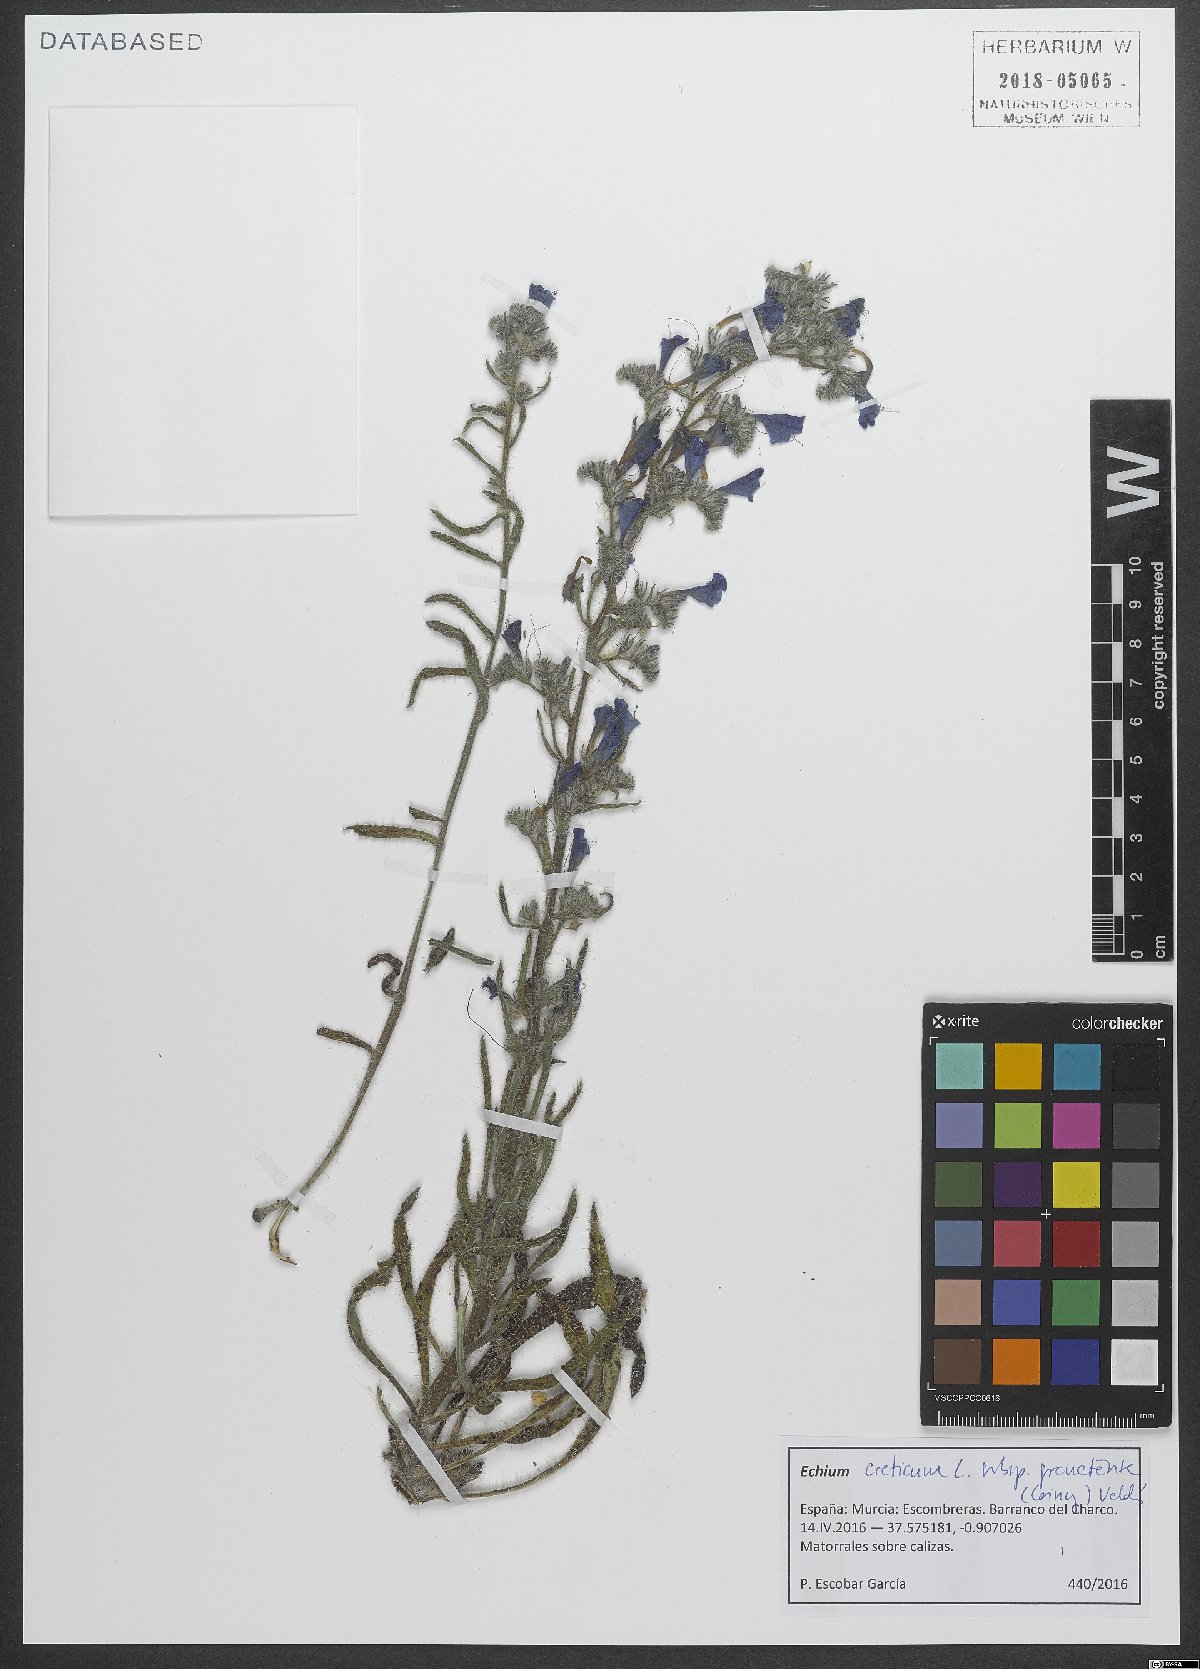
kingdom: Plantae
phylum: Tracheophyta
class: Magnoliopsida
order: Boraginales
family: Boraginaceae
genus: Echium
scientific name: Echium creticum
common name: Cretan viper's bugloss
